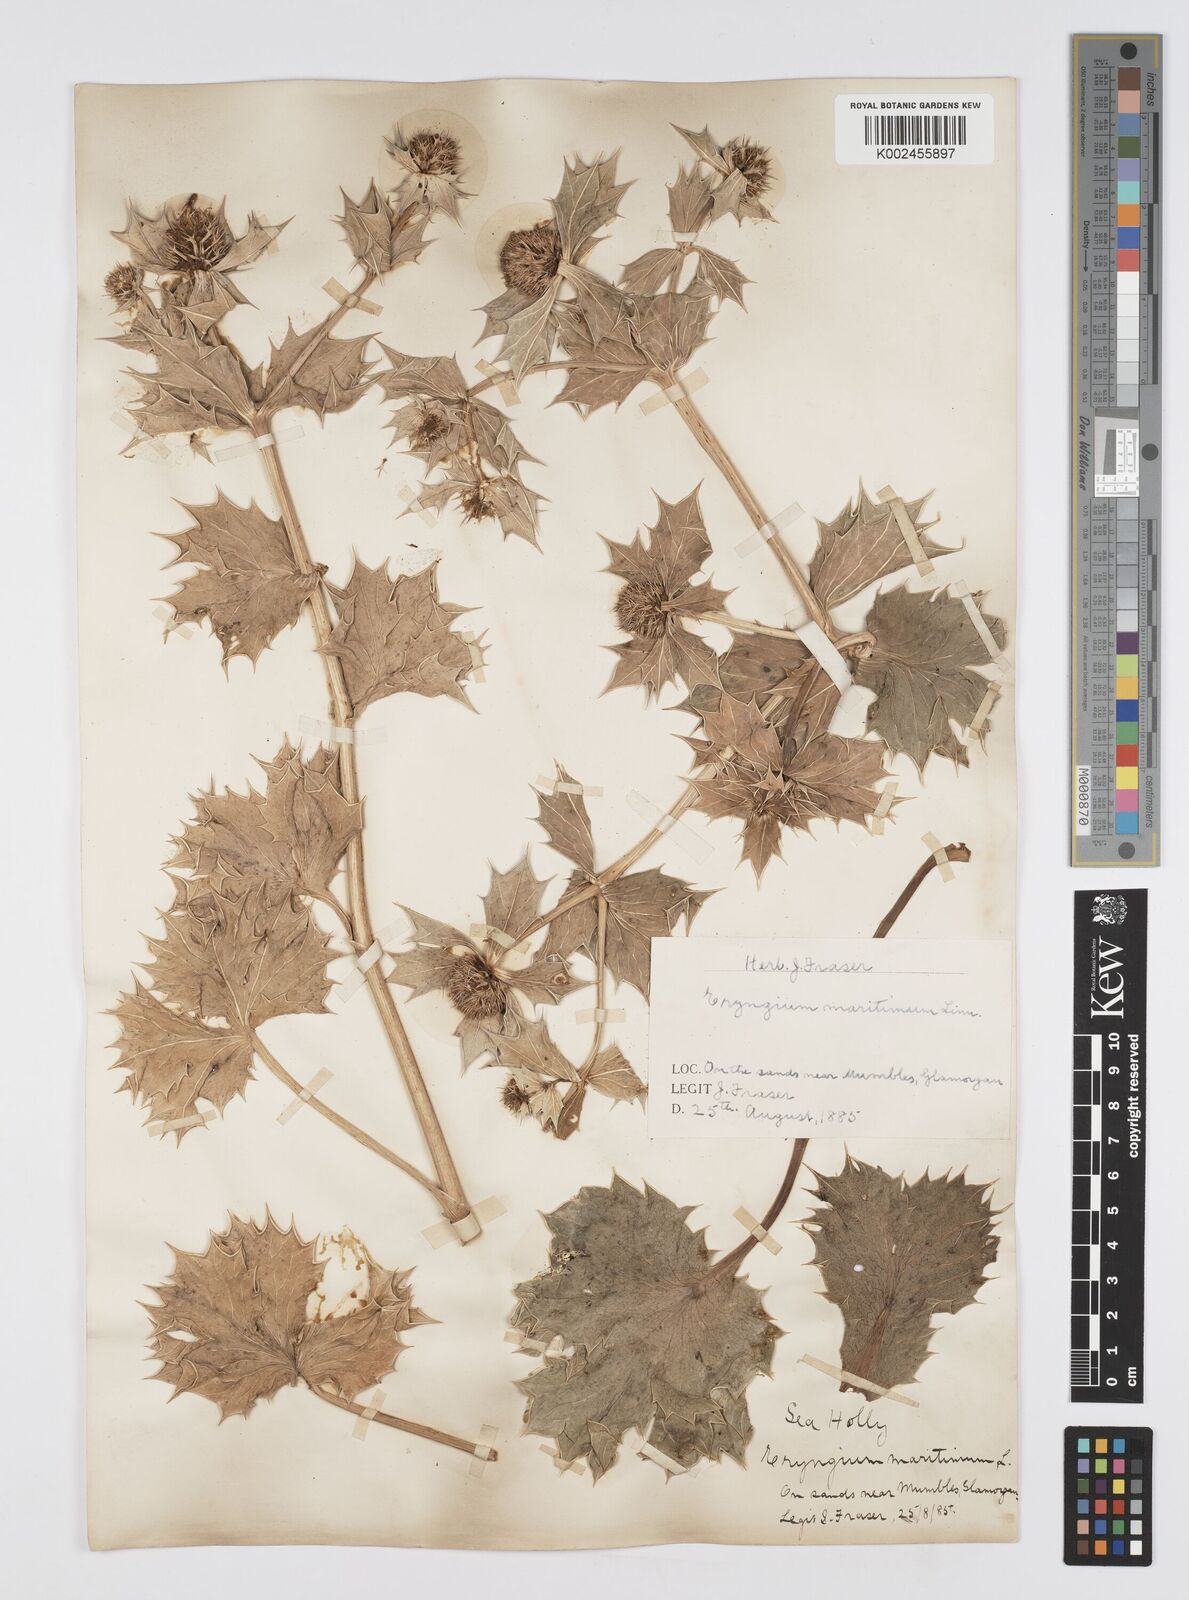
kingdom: Plantae
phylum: Tracheophyta
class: Magnoliopsida
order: Apiales
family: Apiaceae
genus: Eryngium
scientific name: Eryngium maritimum
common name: Sea-holly
